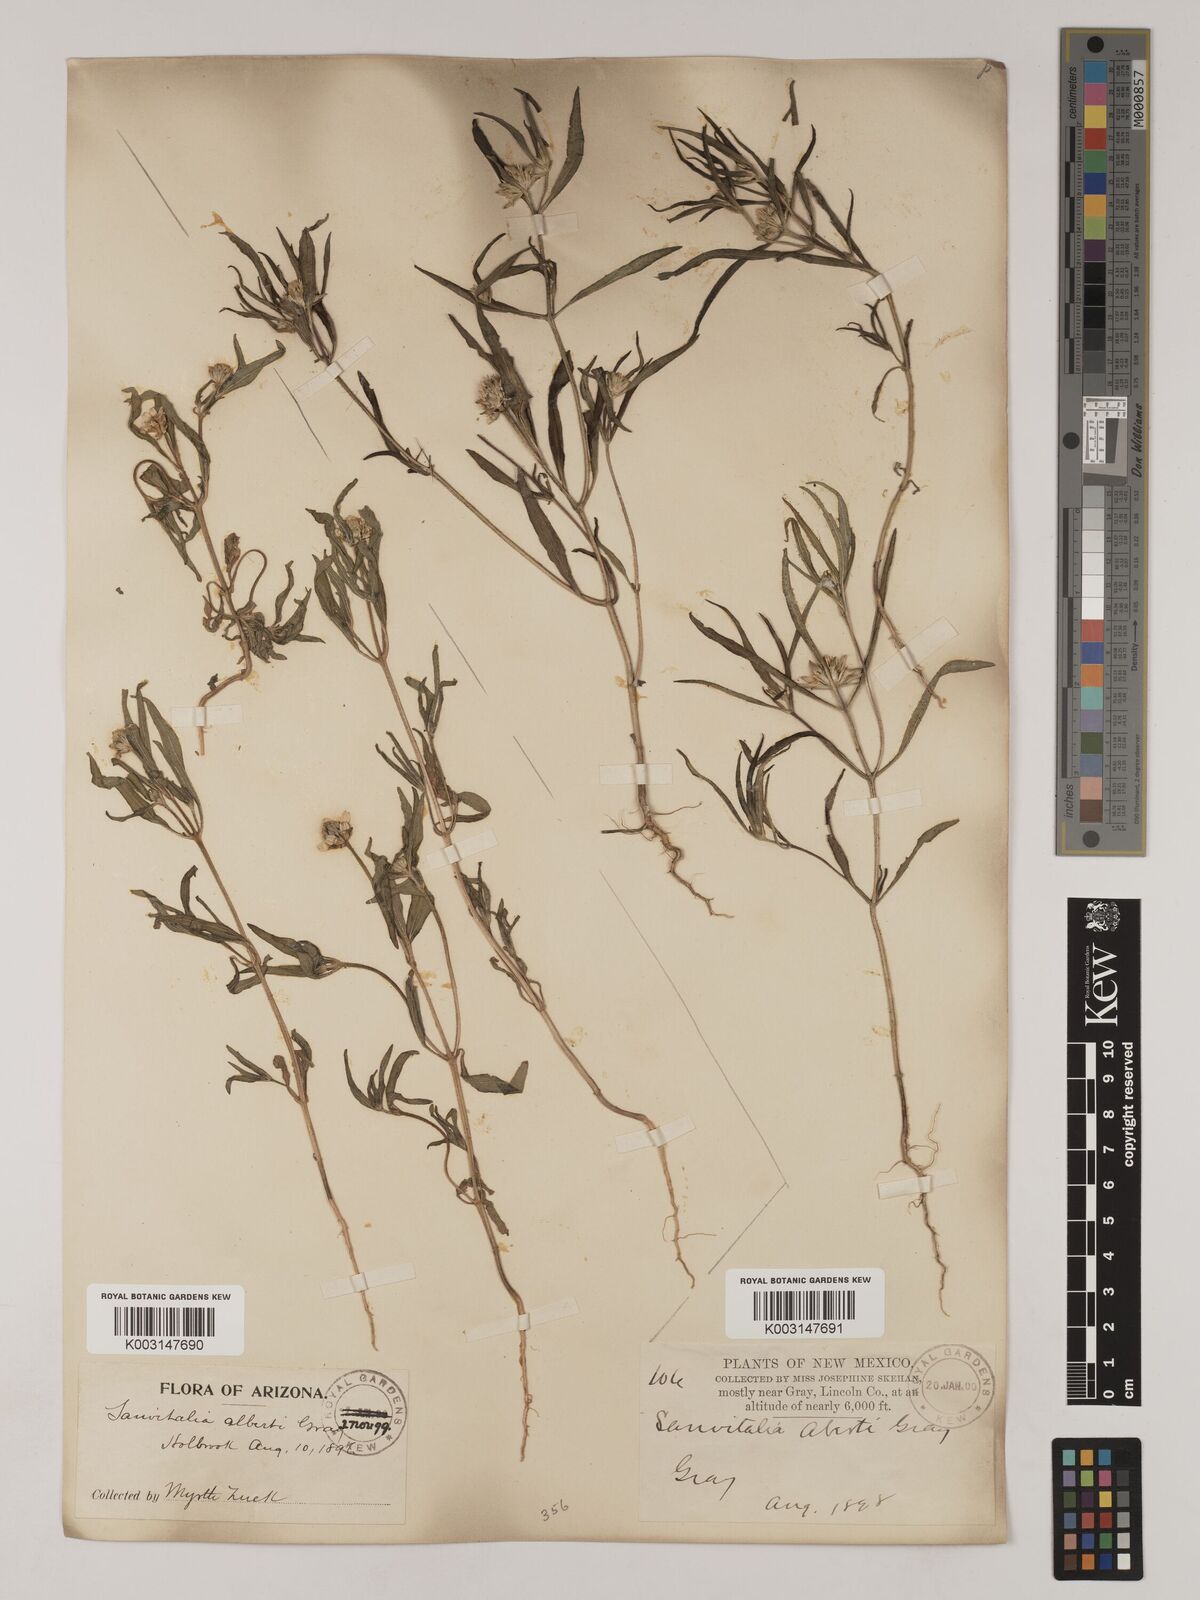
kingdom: Plantae
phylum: Tracheophyta
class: Magnoliopsida
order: Asterales
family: Asteraceae
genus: Sanvitalia
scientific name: Sanvitalia abertii
